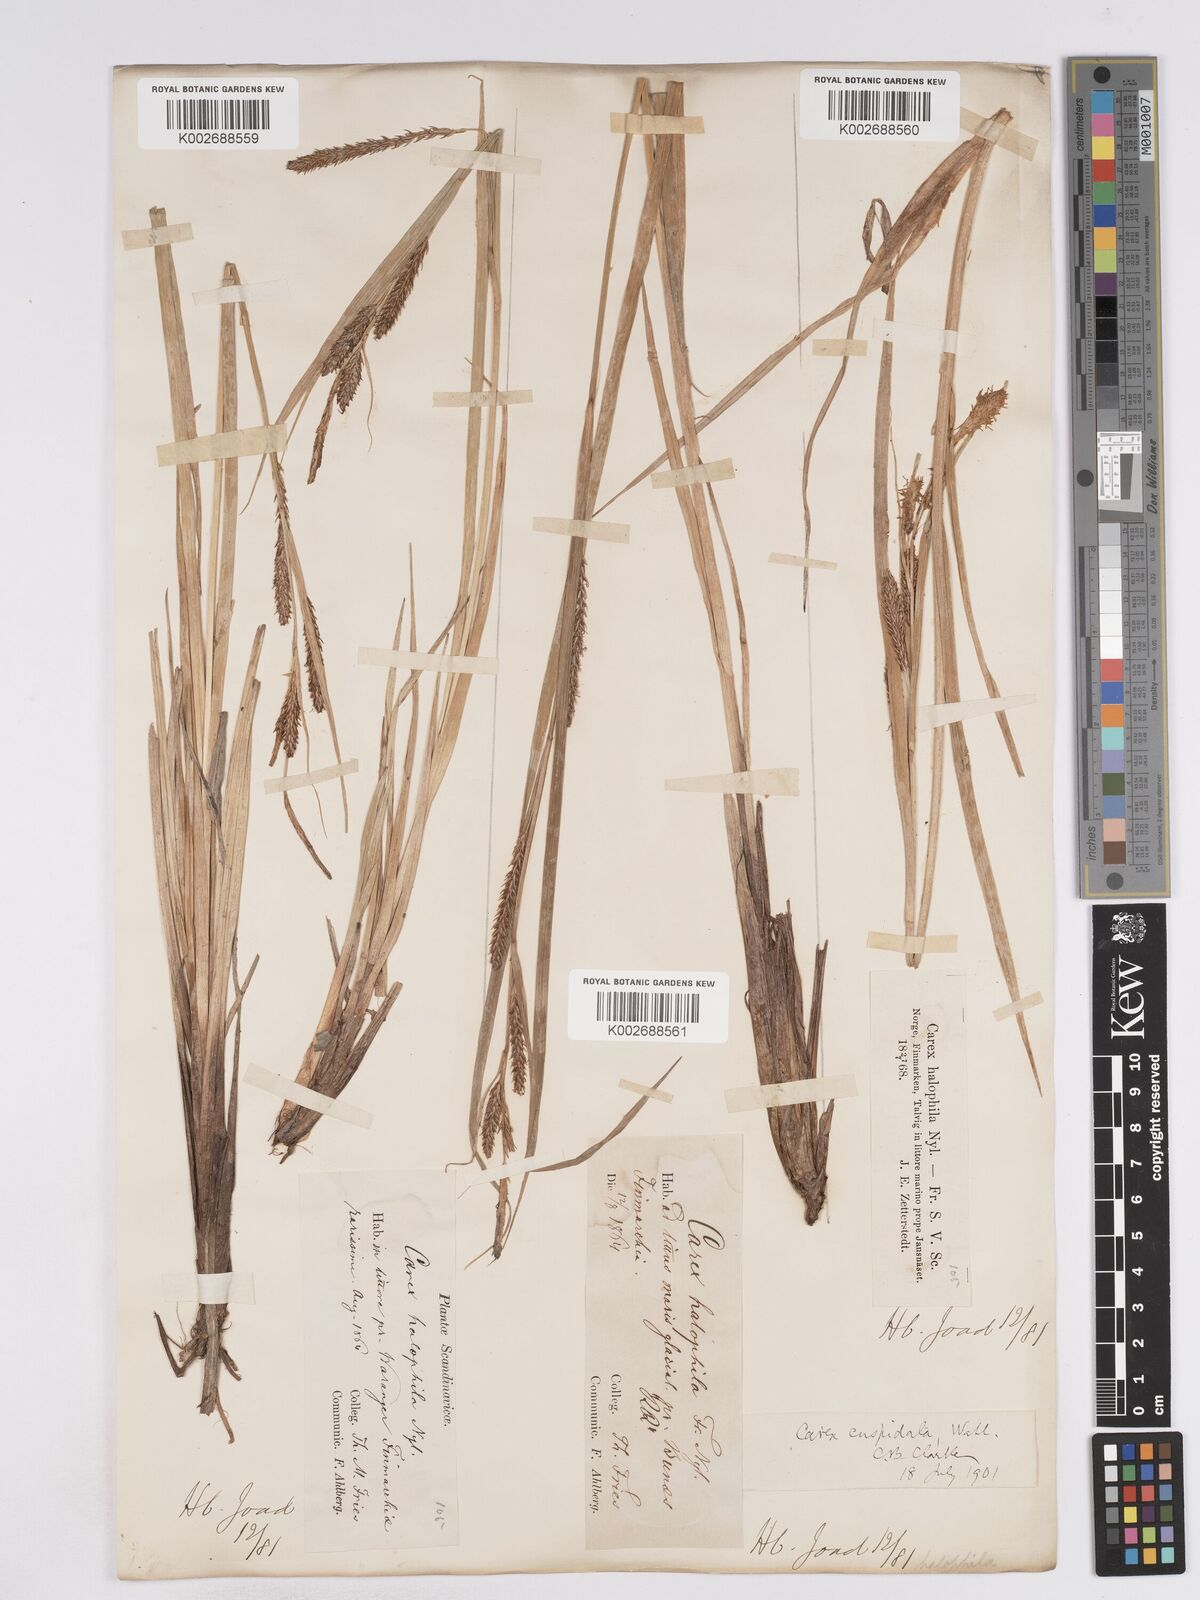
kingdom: Plantae
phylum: Tracheophyta
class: Liliopsida
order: Poales
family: Cyperaceae
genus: Carex
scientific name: Carex recta
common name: Estuarine sedge
